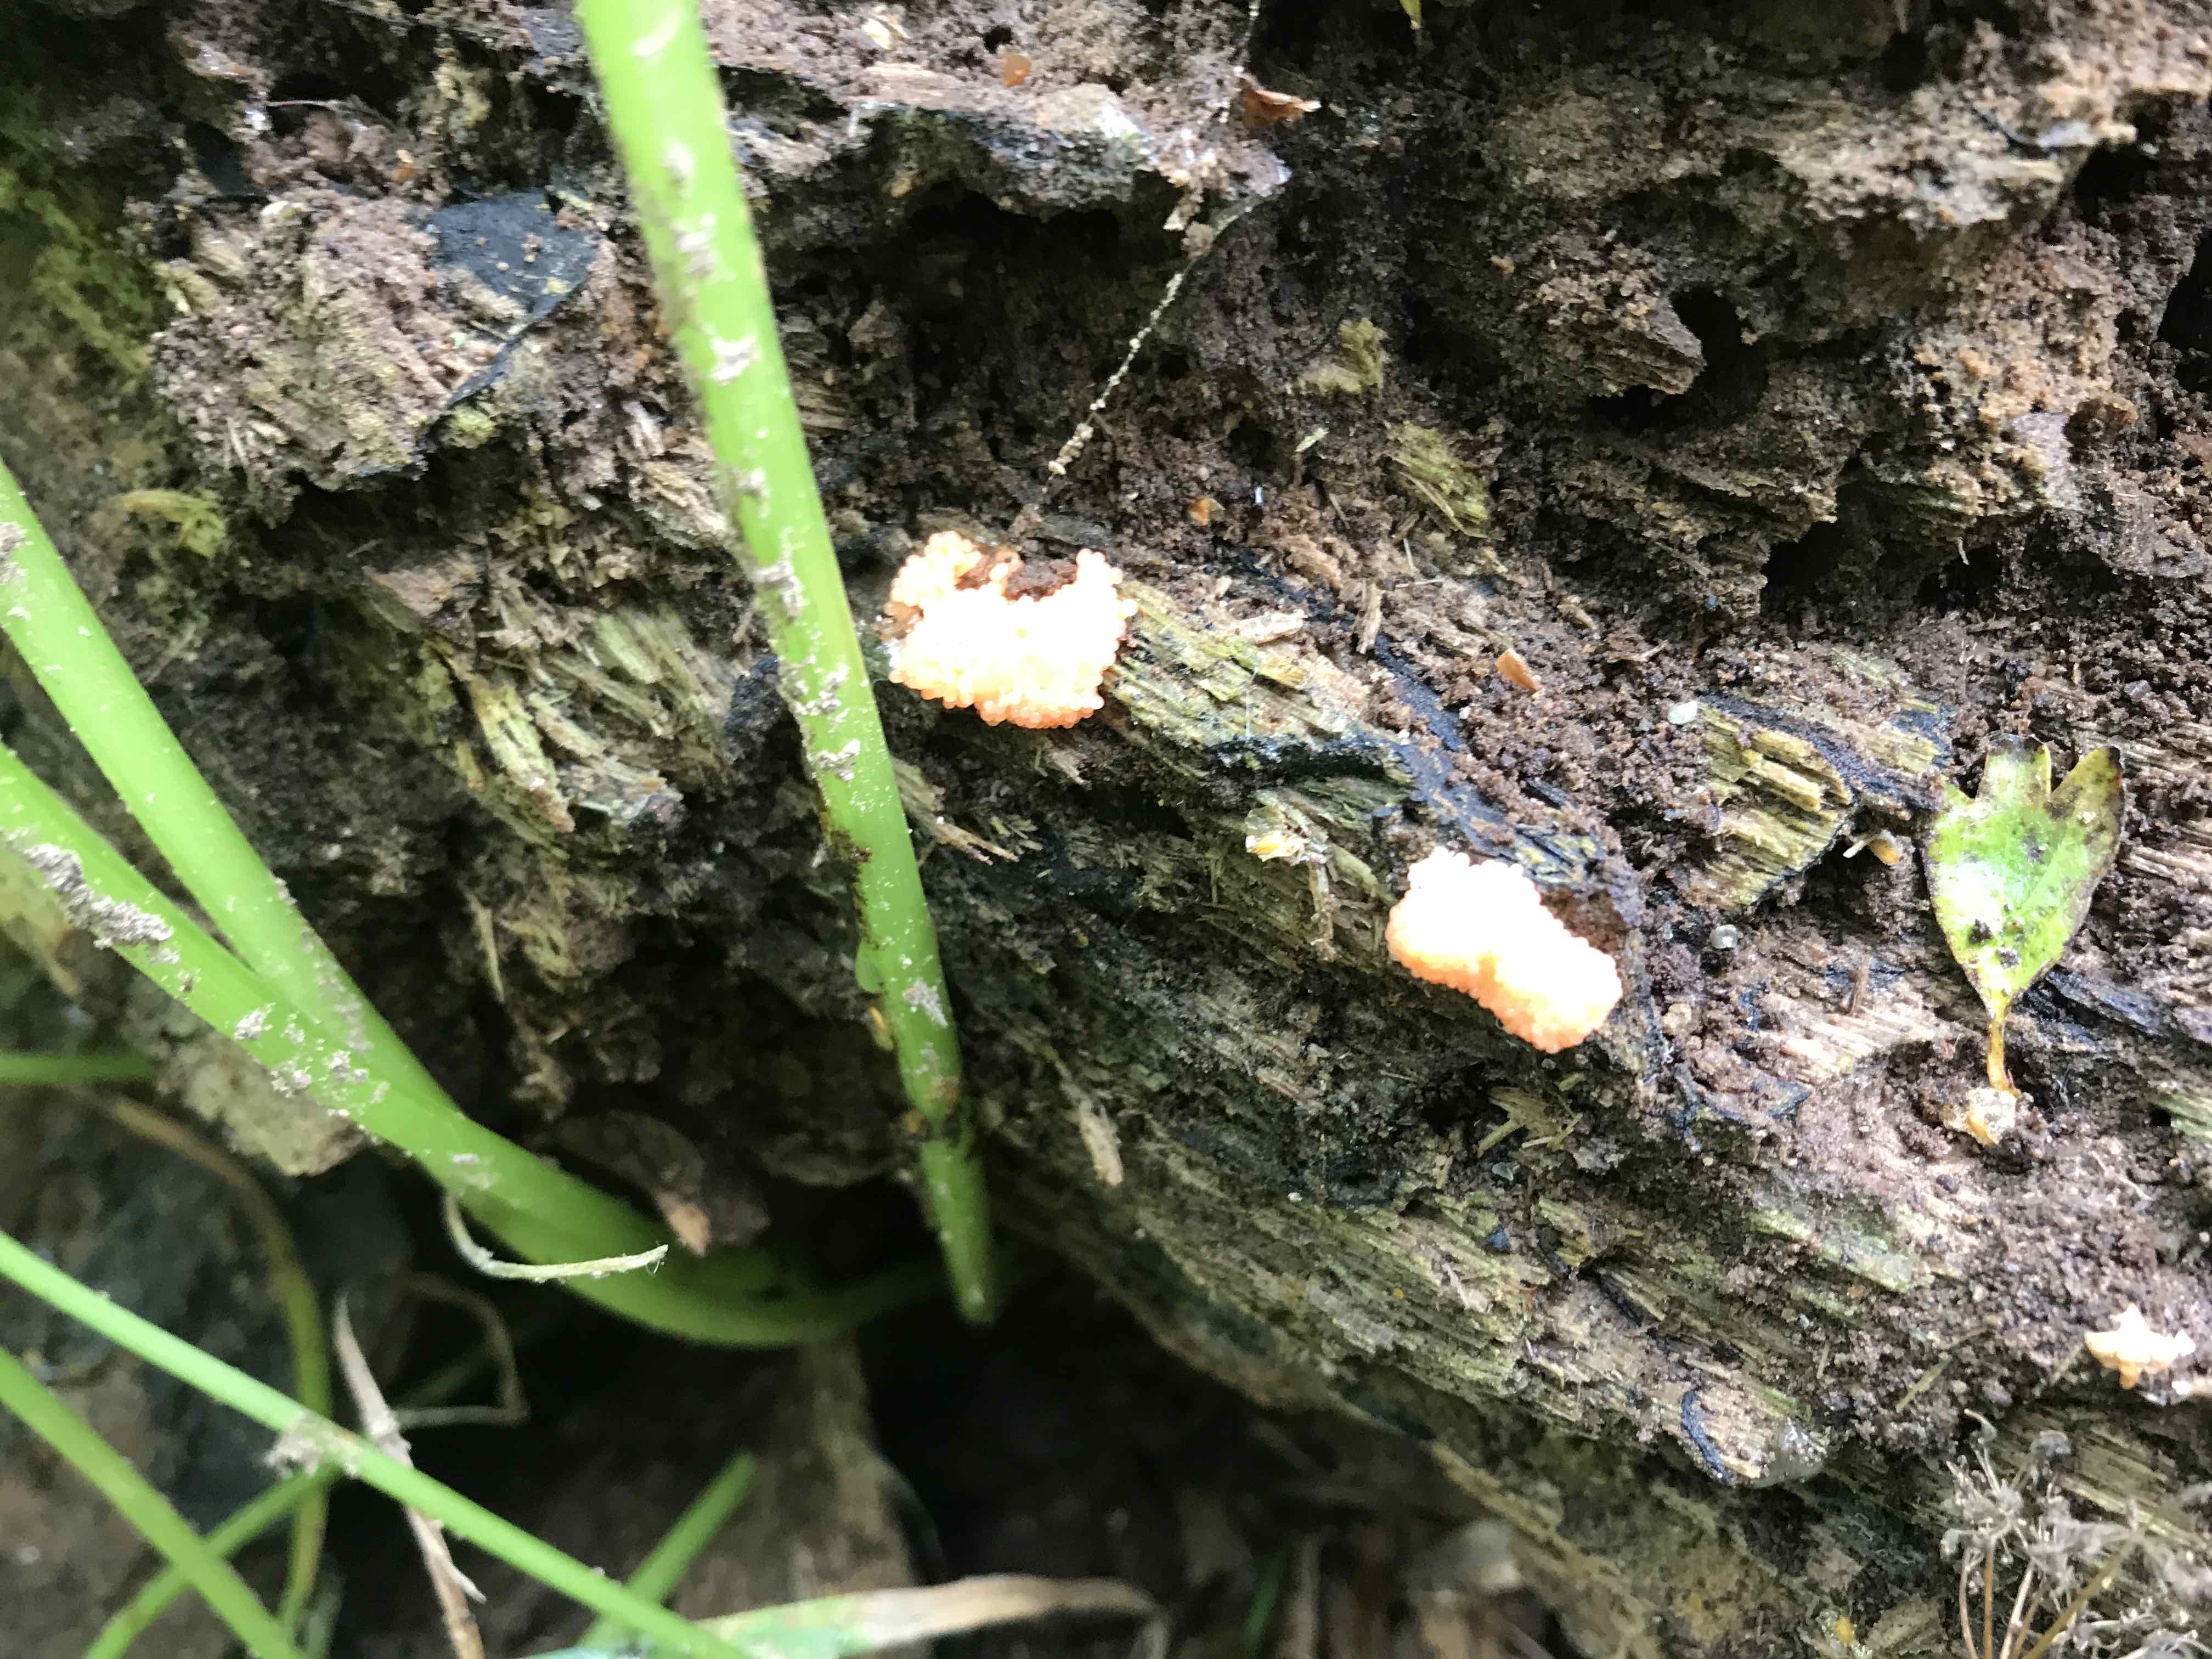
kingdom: Protozoa
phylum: Mycetozoa
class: Myxomycetes
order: Cribrariales
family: Tubiferaceae
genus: Tubifera
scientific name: Tubifera ferruginosa
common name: kanel-støvrør
